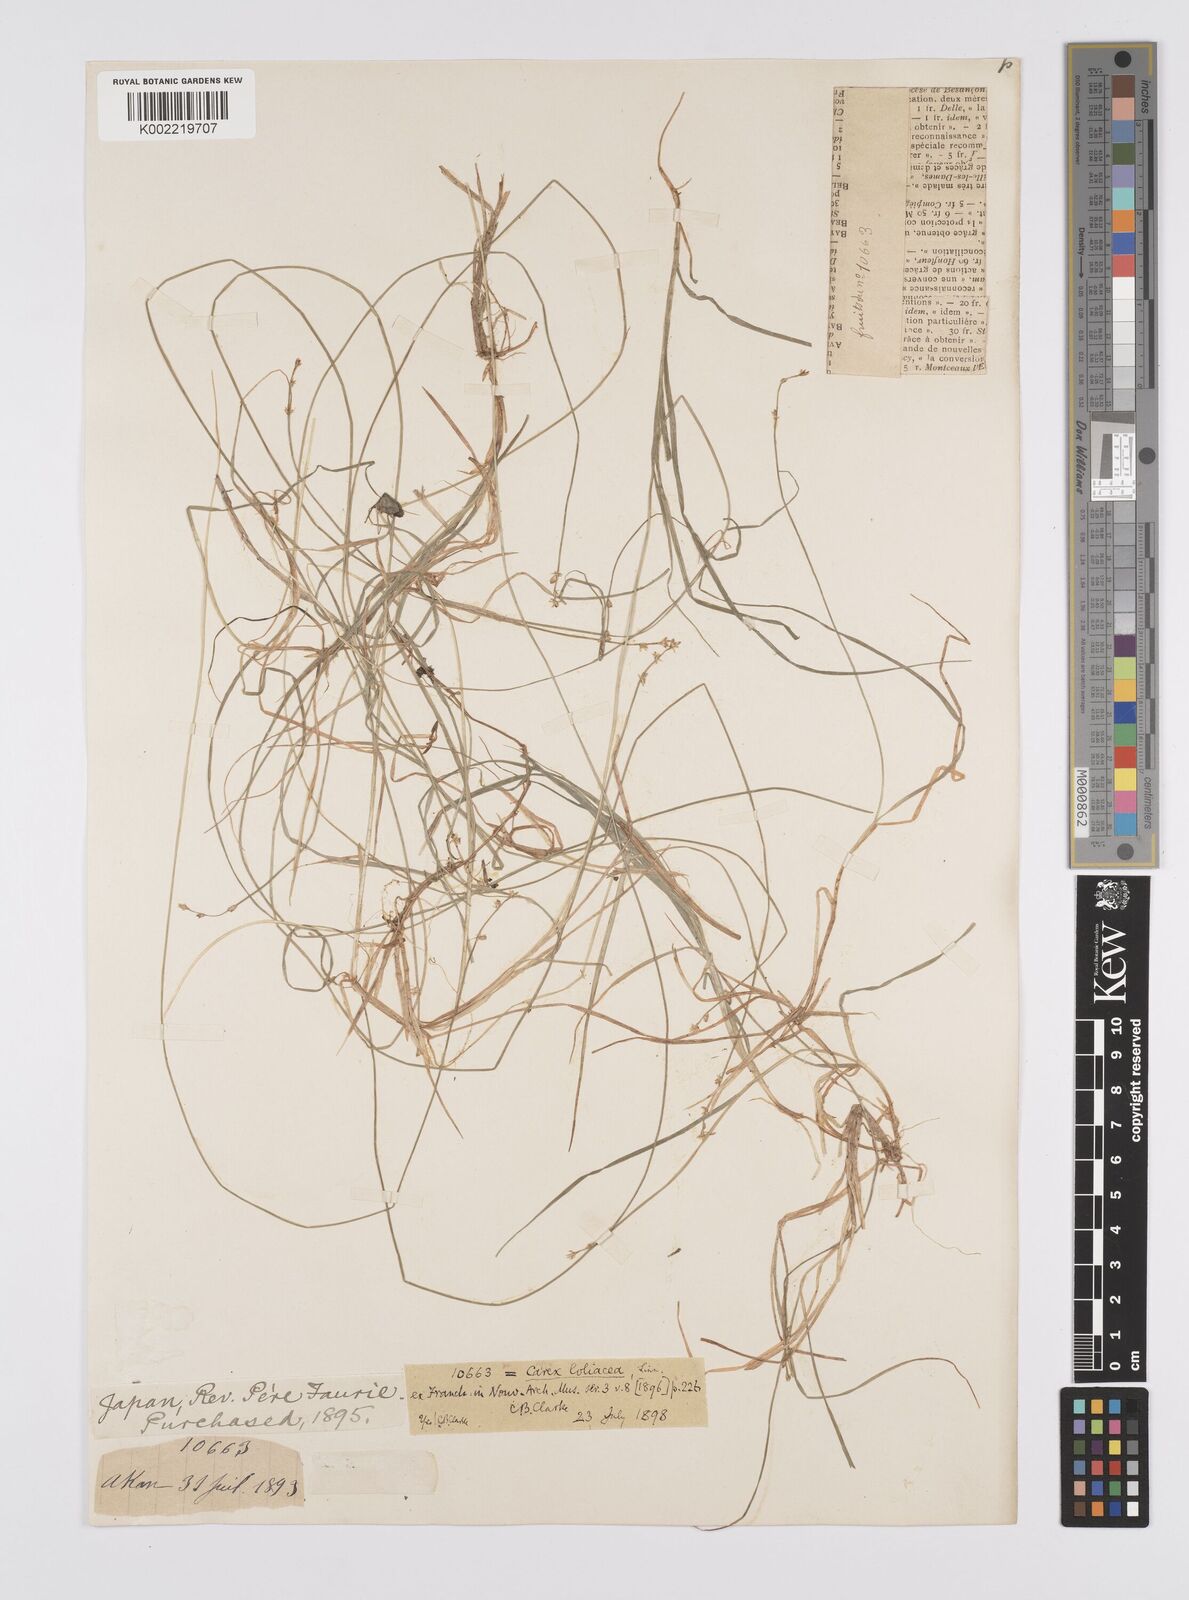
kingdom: Plantae
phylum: Tracheophyta
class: Liliopsida
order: Poales
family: Cyperaceae
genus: Carex
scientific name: Carex loliacea
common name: Ryegrass sedge
